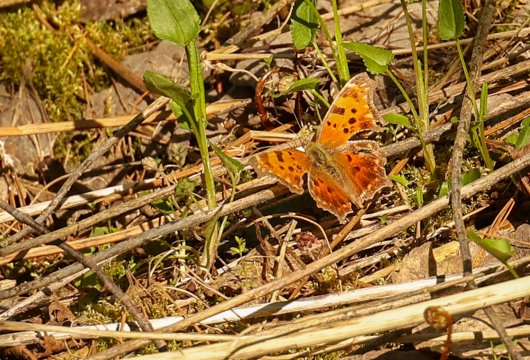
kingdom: Animalia
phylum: Arthropoda
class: Insecta
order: Lepidoptera
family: Nymphalidae
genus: Polygonia
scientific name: Polygonia comma
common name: Eastern Comma
